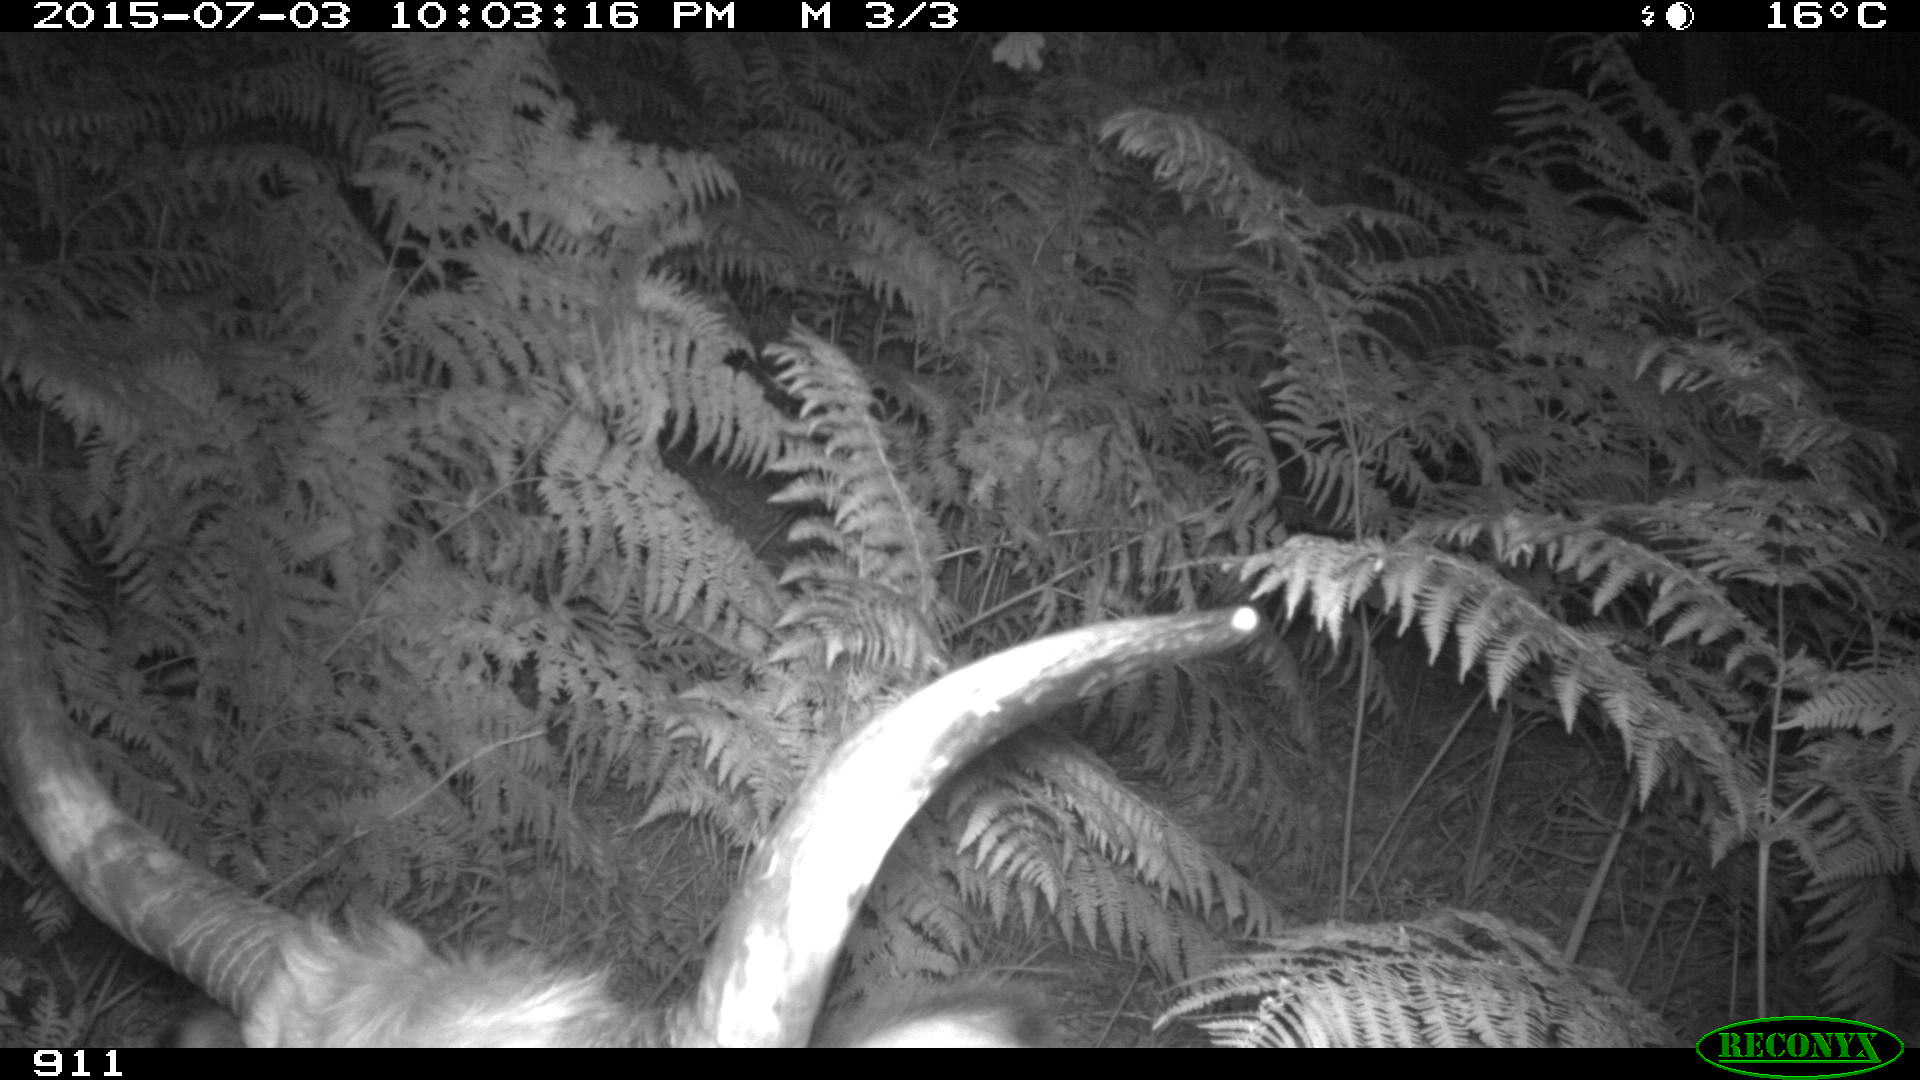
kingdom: Animalia
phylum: Chordata
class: Mammalia
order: Artiodactyla
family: Bovidae
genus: Bos
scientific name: Bos taurus
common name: Domesticated cattle
